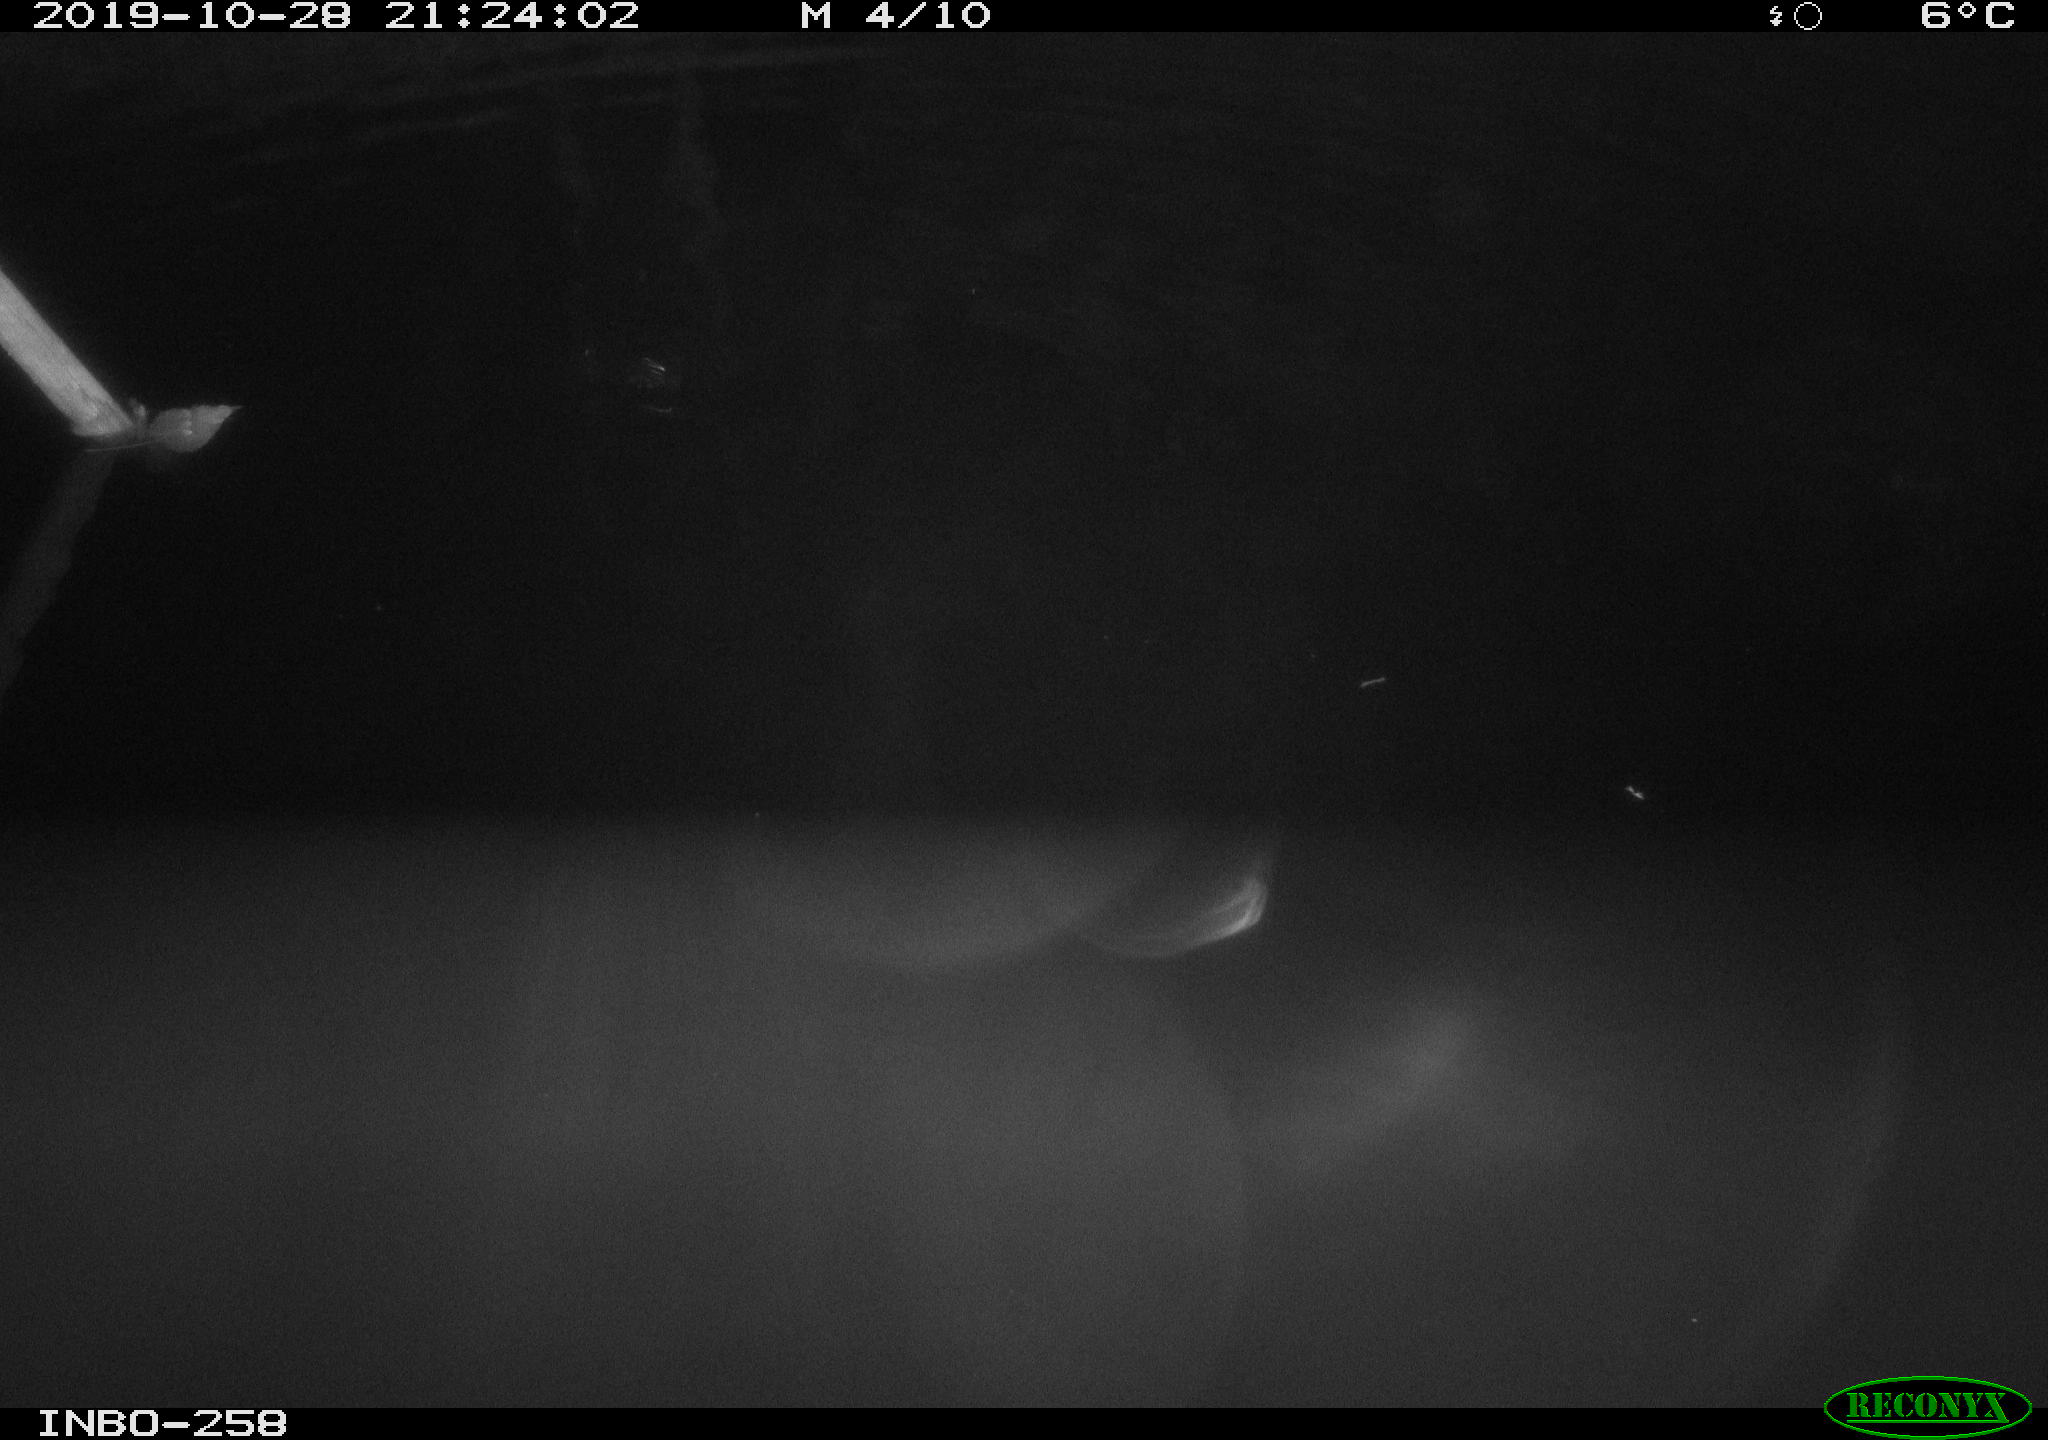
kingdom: Animalia
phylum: Chordata
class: Mammalia
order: Rodentia
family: Muridae
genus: Rattus
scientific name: Rattus norvegicus
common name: Brown rat
